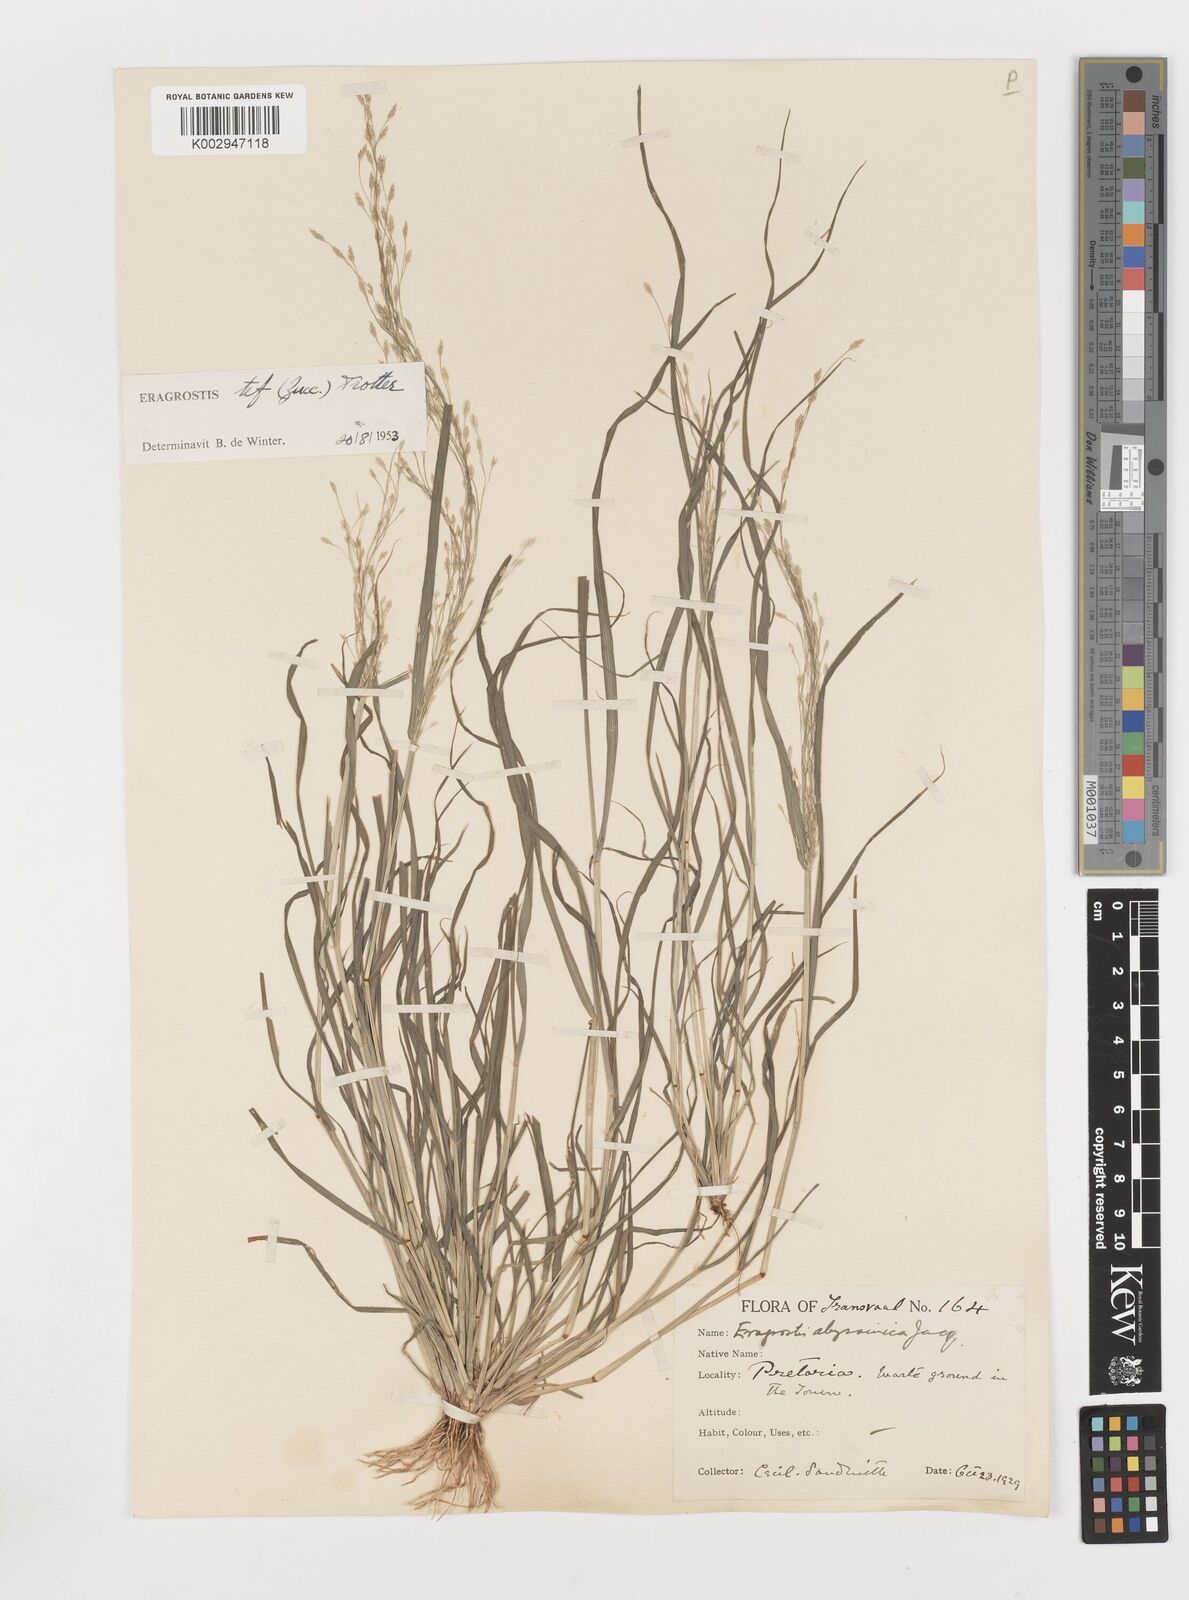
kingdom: Plantae
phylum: Tracheophyta
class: Liliopsida
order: Poales
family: Poaceae
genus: Eragrostis
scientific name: Eragrostis tef
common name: Teff
